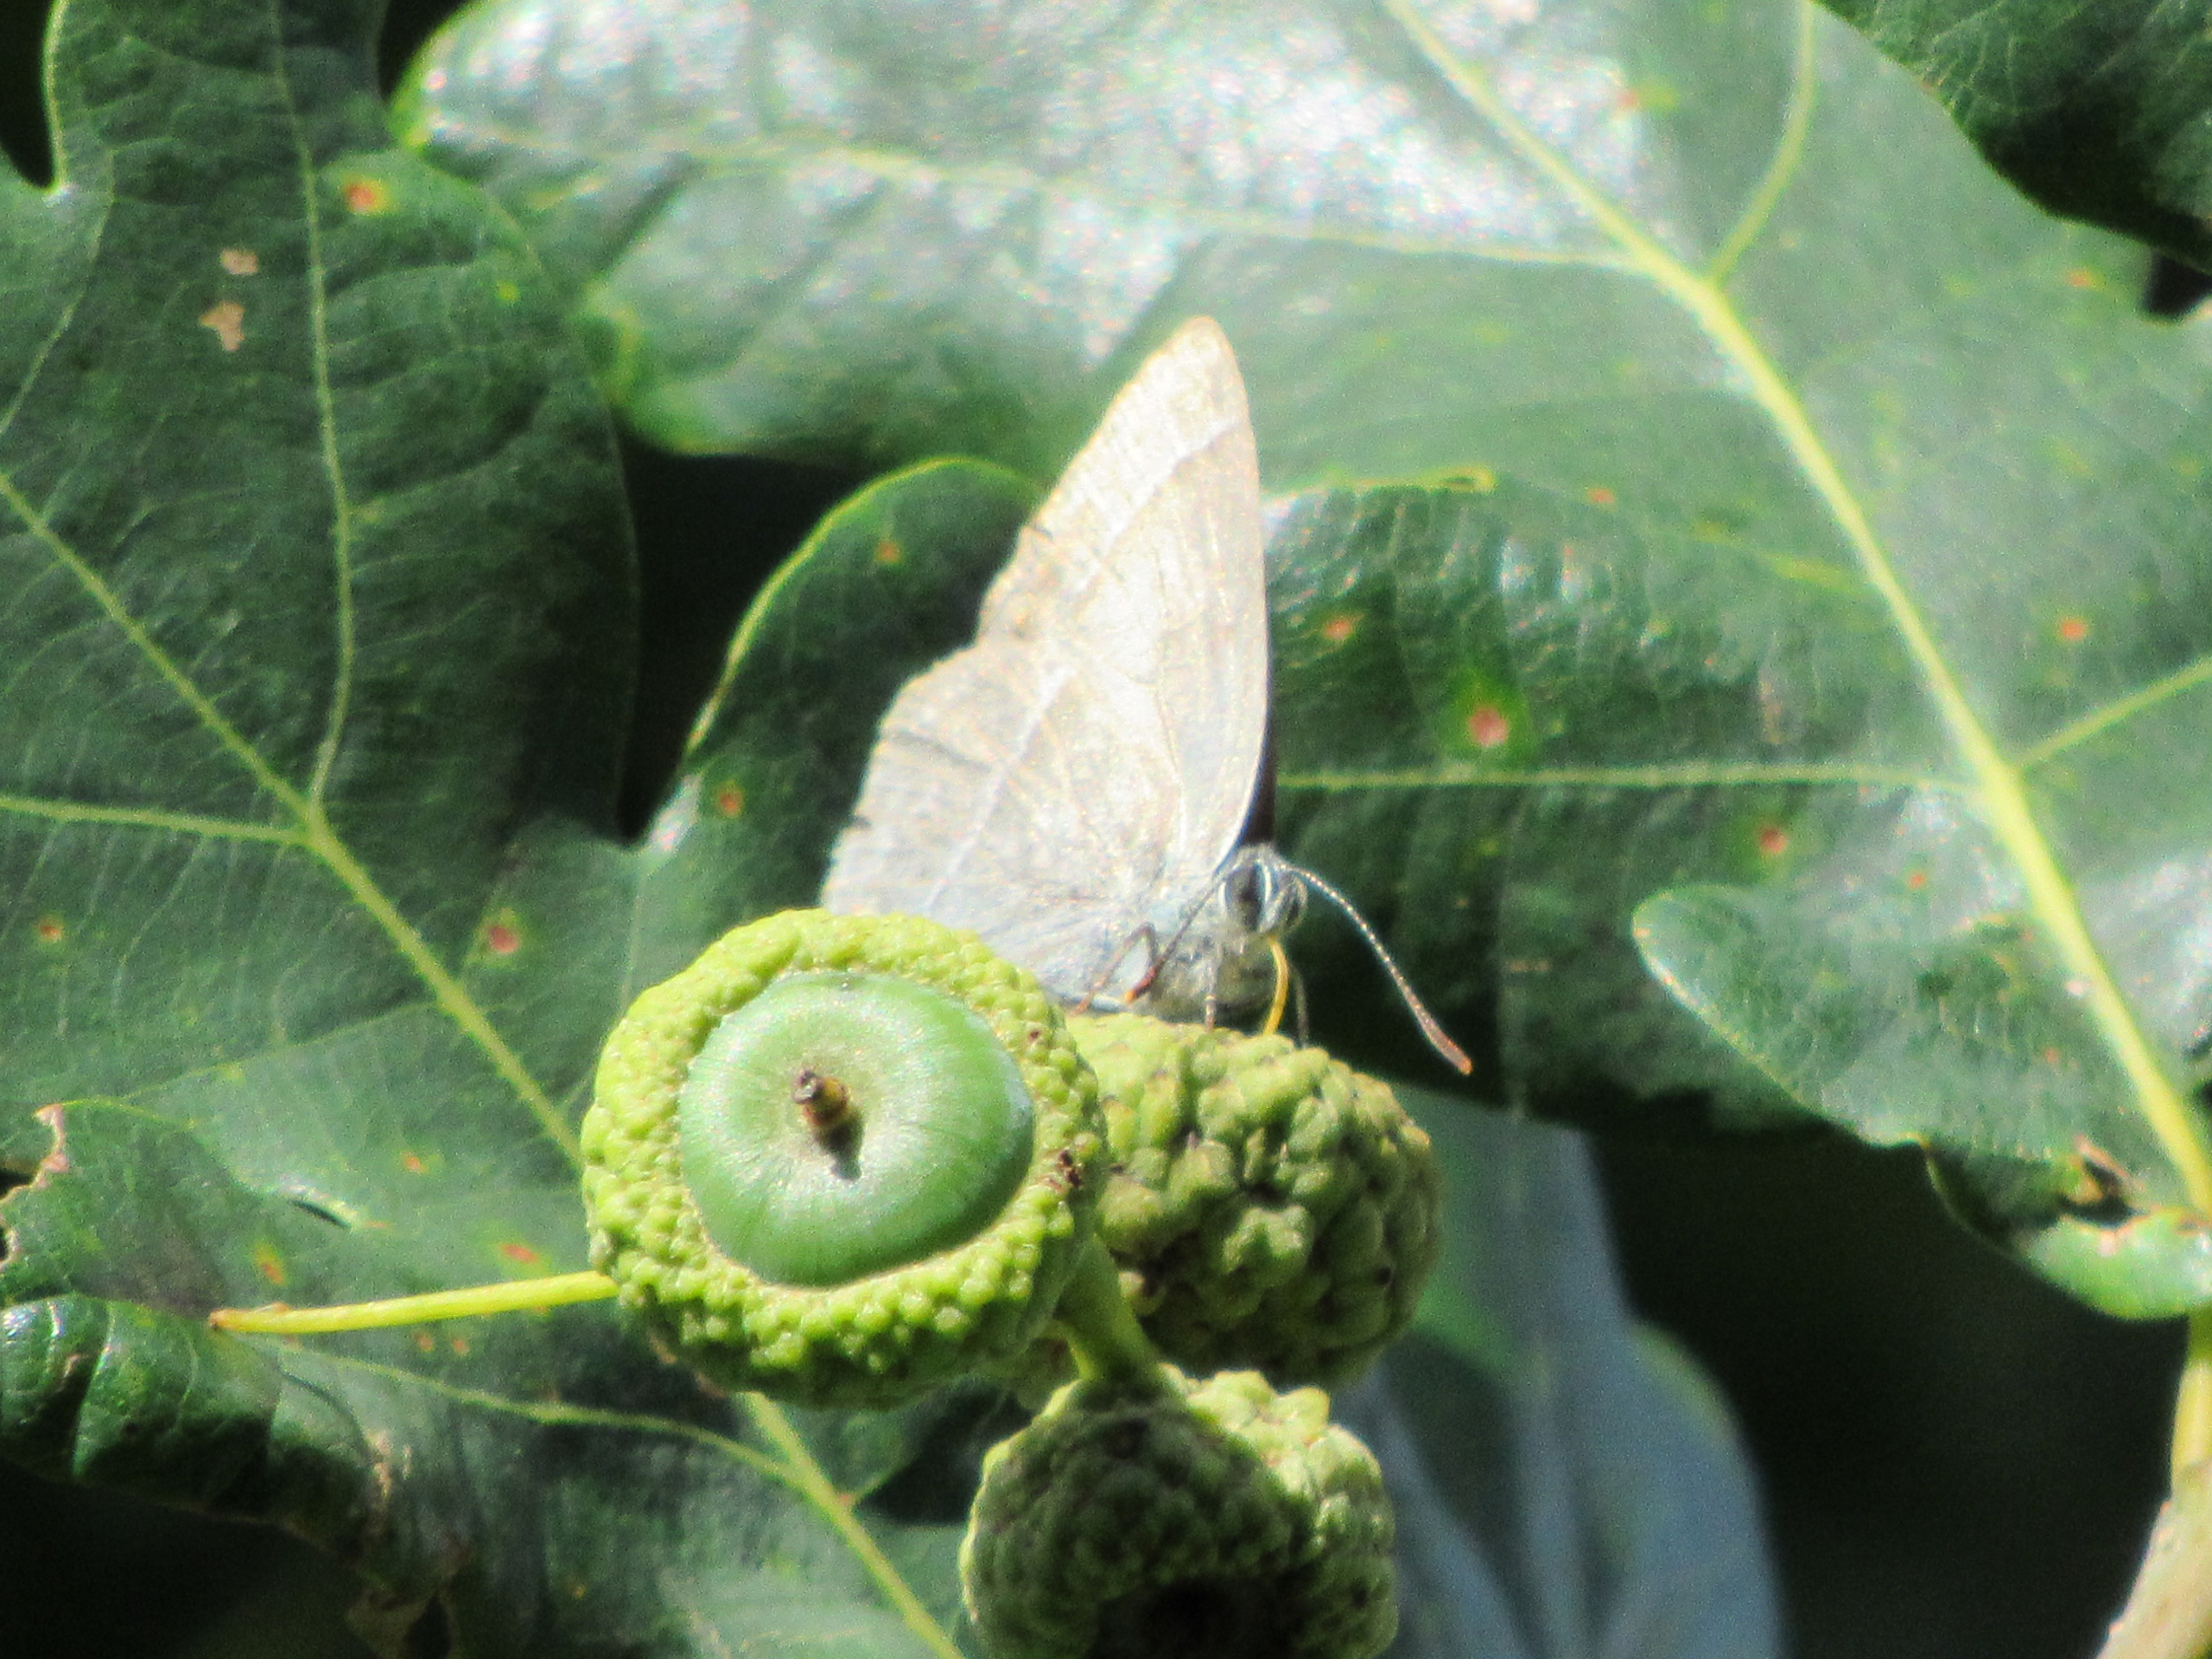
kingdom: Animalia
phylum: Arthropoda
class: Insecta
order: Lepidoptera
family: Lycaenidae
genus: Quercusia
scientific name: Quercusia quercus
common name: Blåhale
